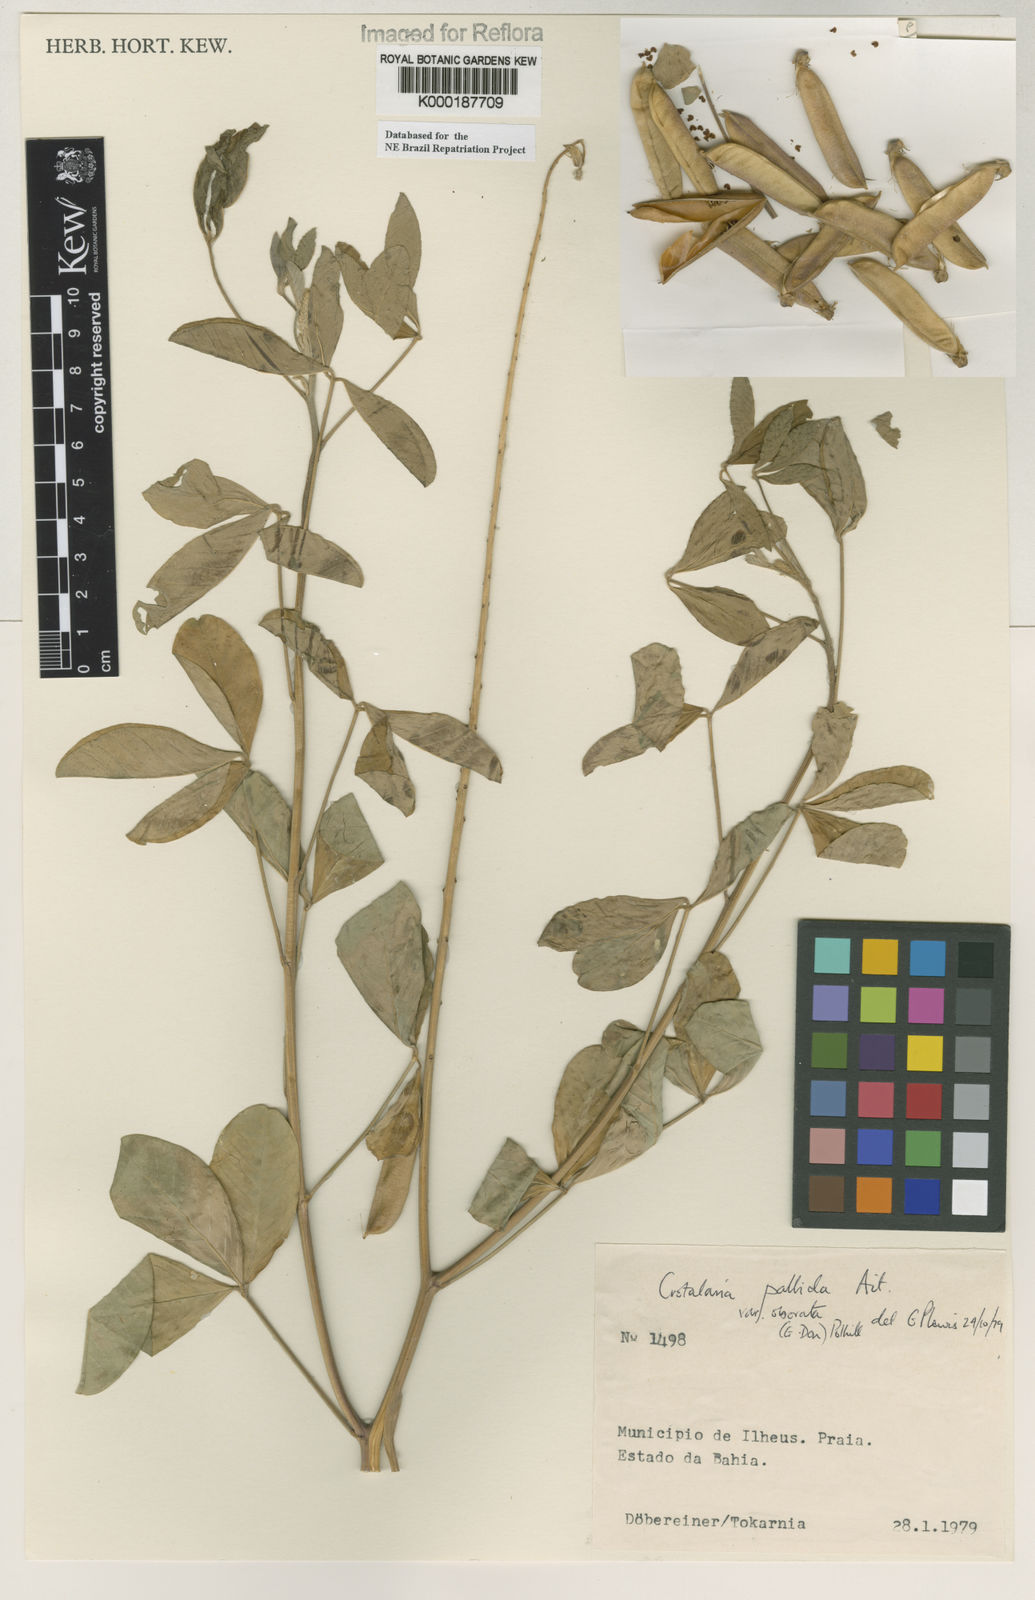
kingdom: Plantae
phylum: Tracheophyta
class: Magnoliopsida
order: Fabales
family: Fabaceae
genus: Crotalaria
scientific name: Crotalaria pallida
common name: Smooth rattlebox
